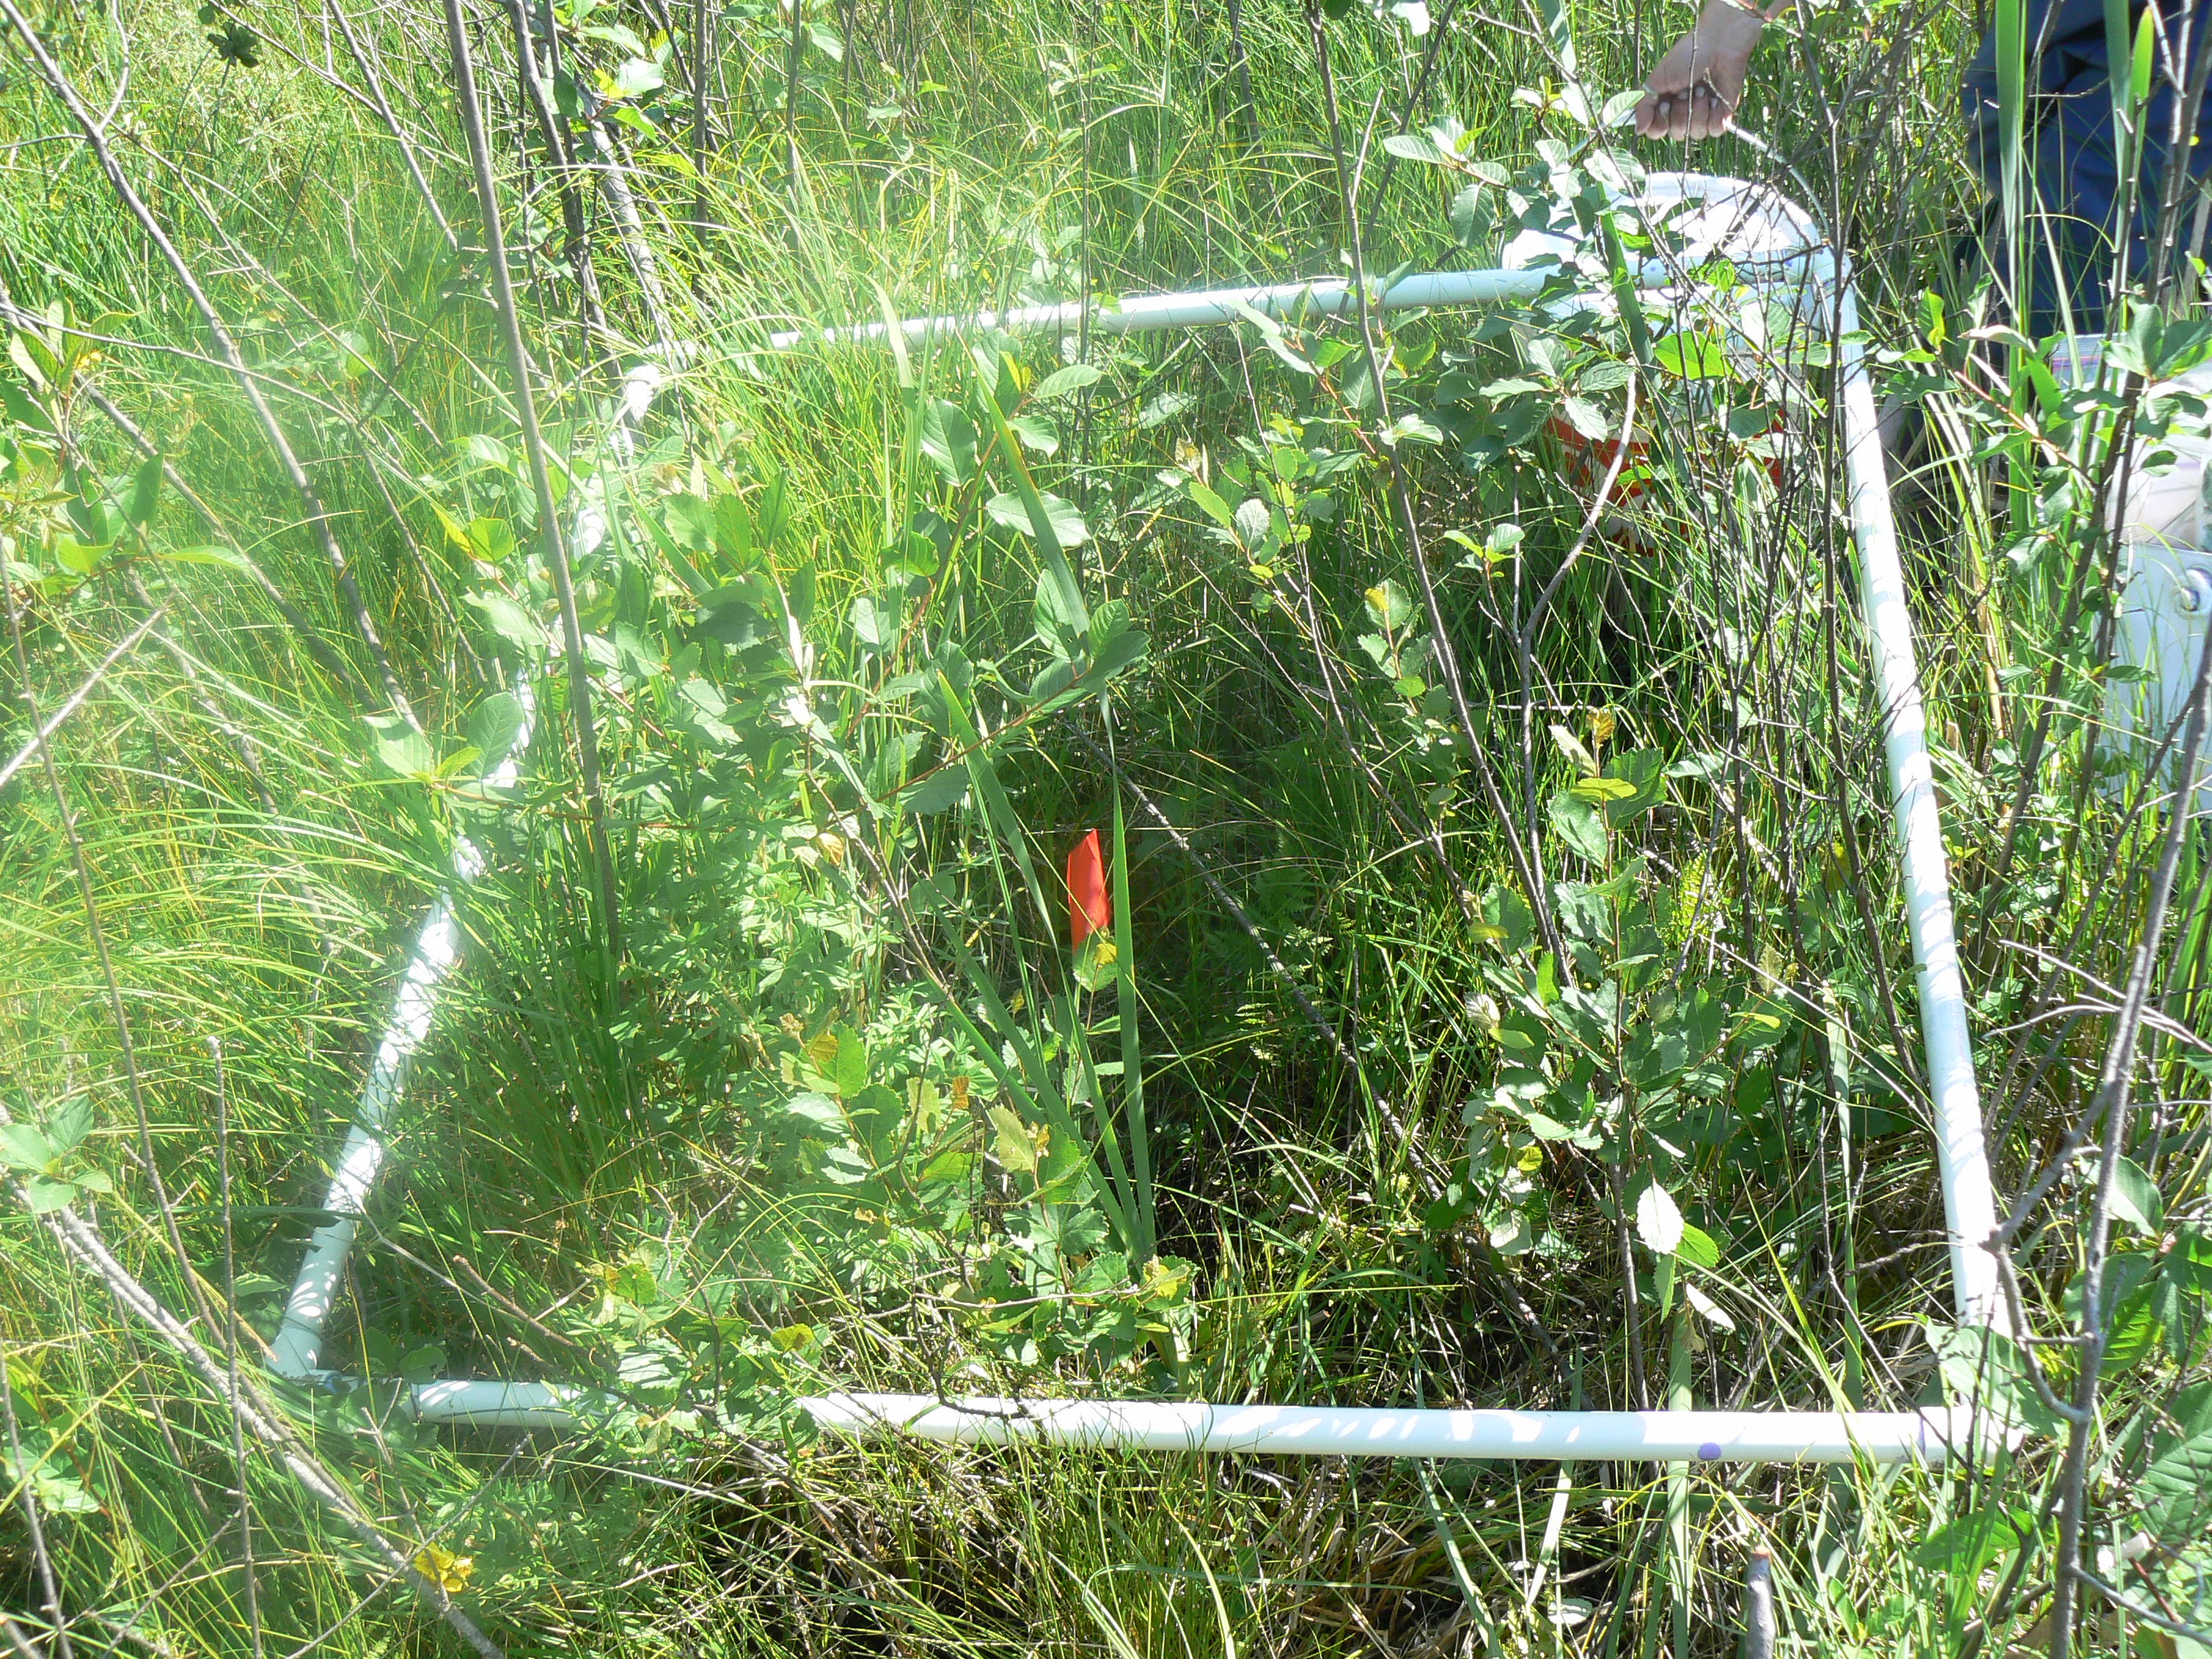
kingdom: Plantae
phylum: Tracheophyta
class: Liliopsida
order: Poales
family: Typhaceae
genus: Typha
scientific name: Typha latifolia
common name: Broadleaf cattail
